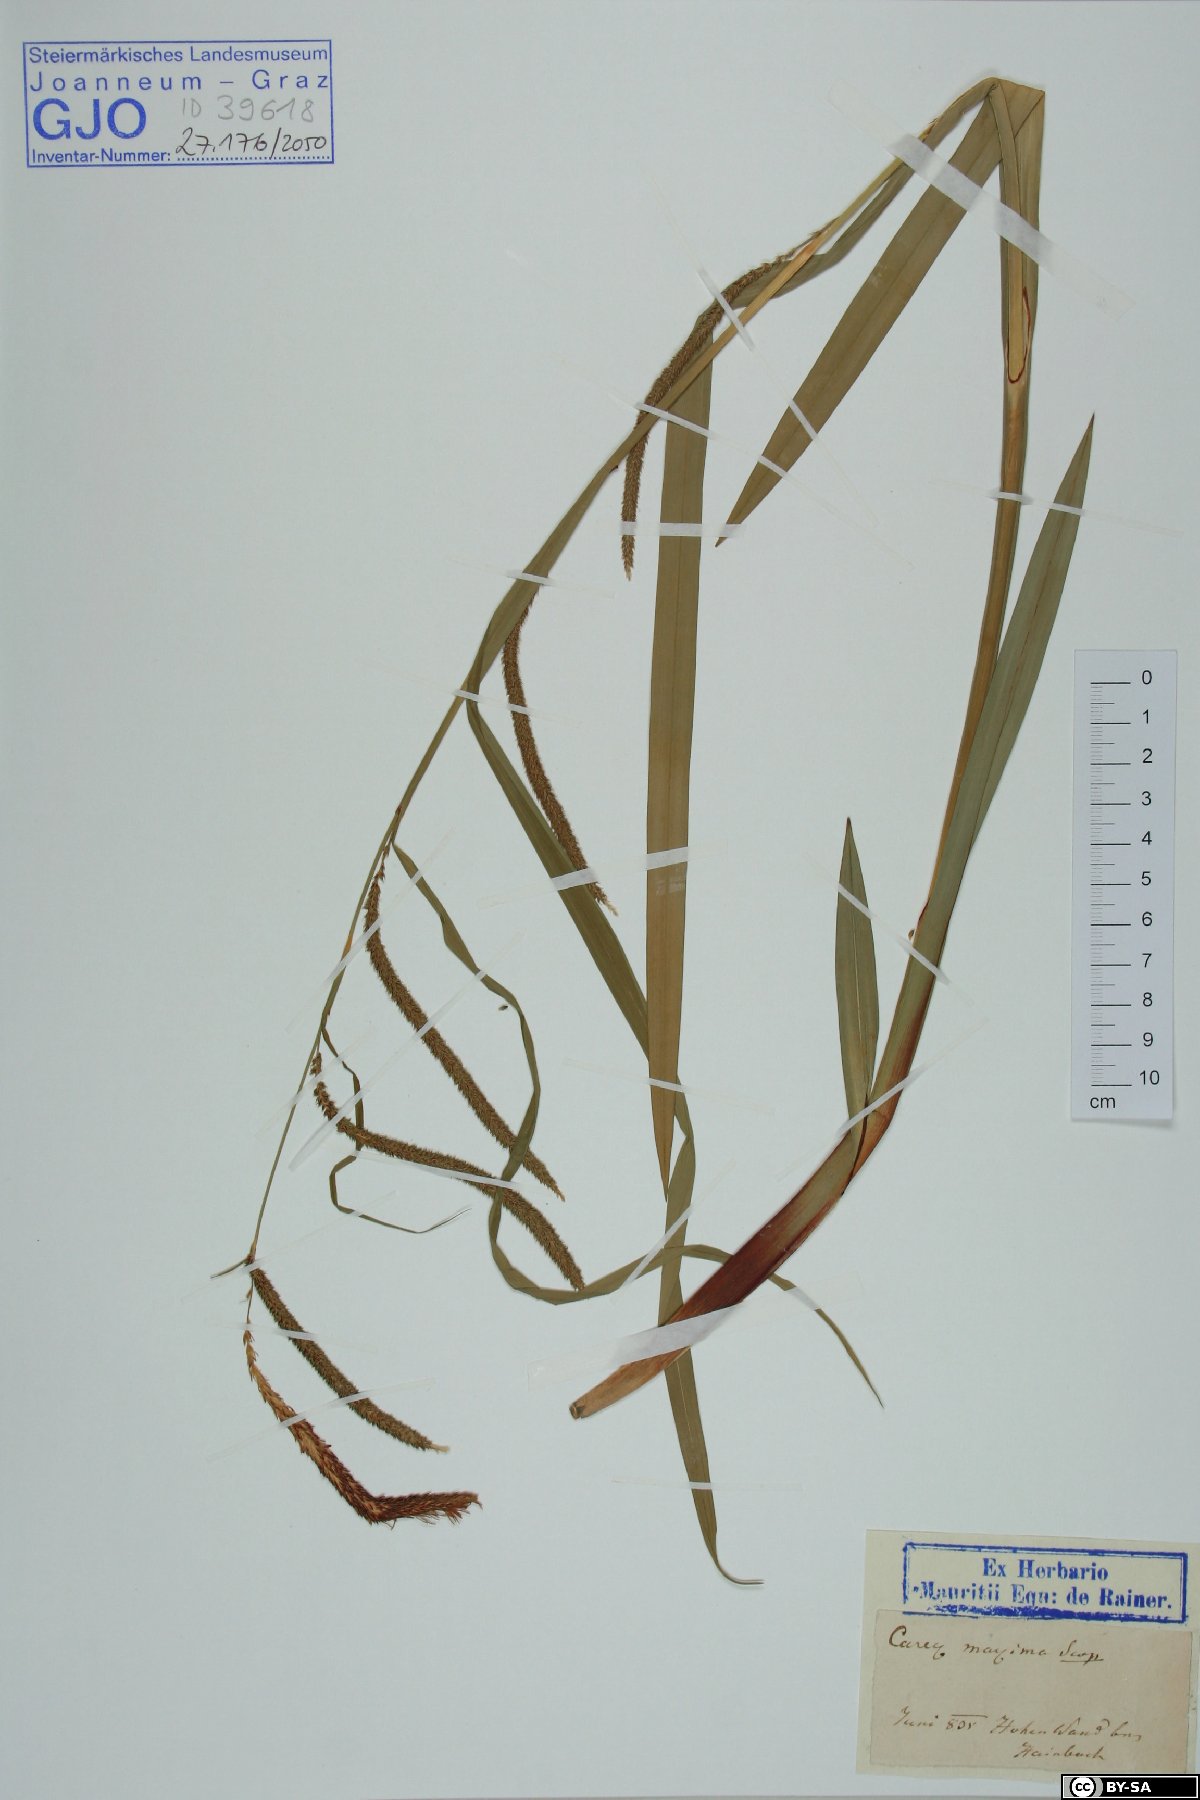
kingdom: Plantae
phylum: Tracheophyta
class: Liliopsida
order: Poales
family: Cyperaceae
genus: Carex
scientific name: Carex pendula
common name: Pendulous sedge
